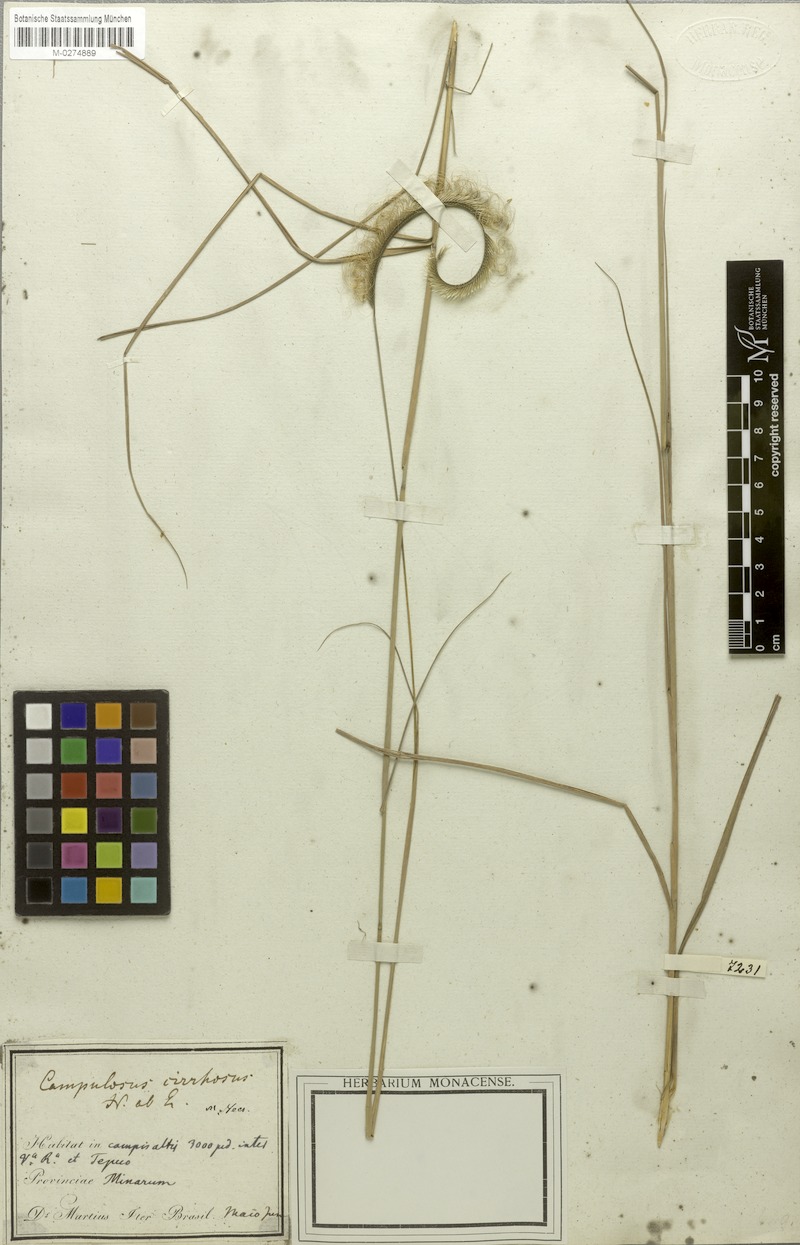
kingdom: Plantae
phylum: Tracheophyta
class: Liliopsida
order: Poales
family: Poaceae
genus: Ctenium
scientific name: Ctenium cirrhosum
